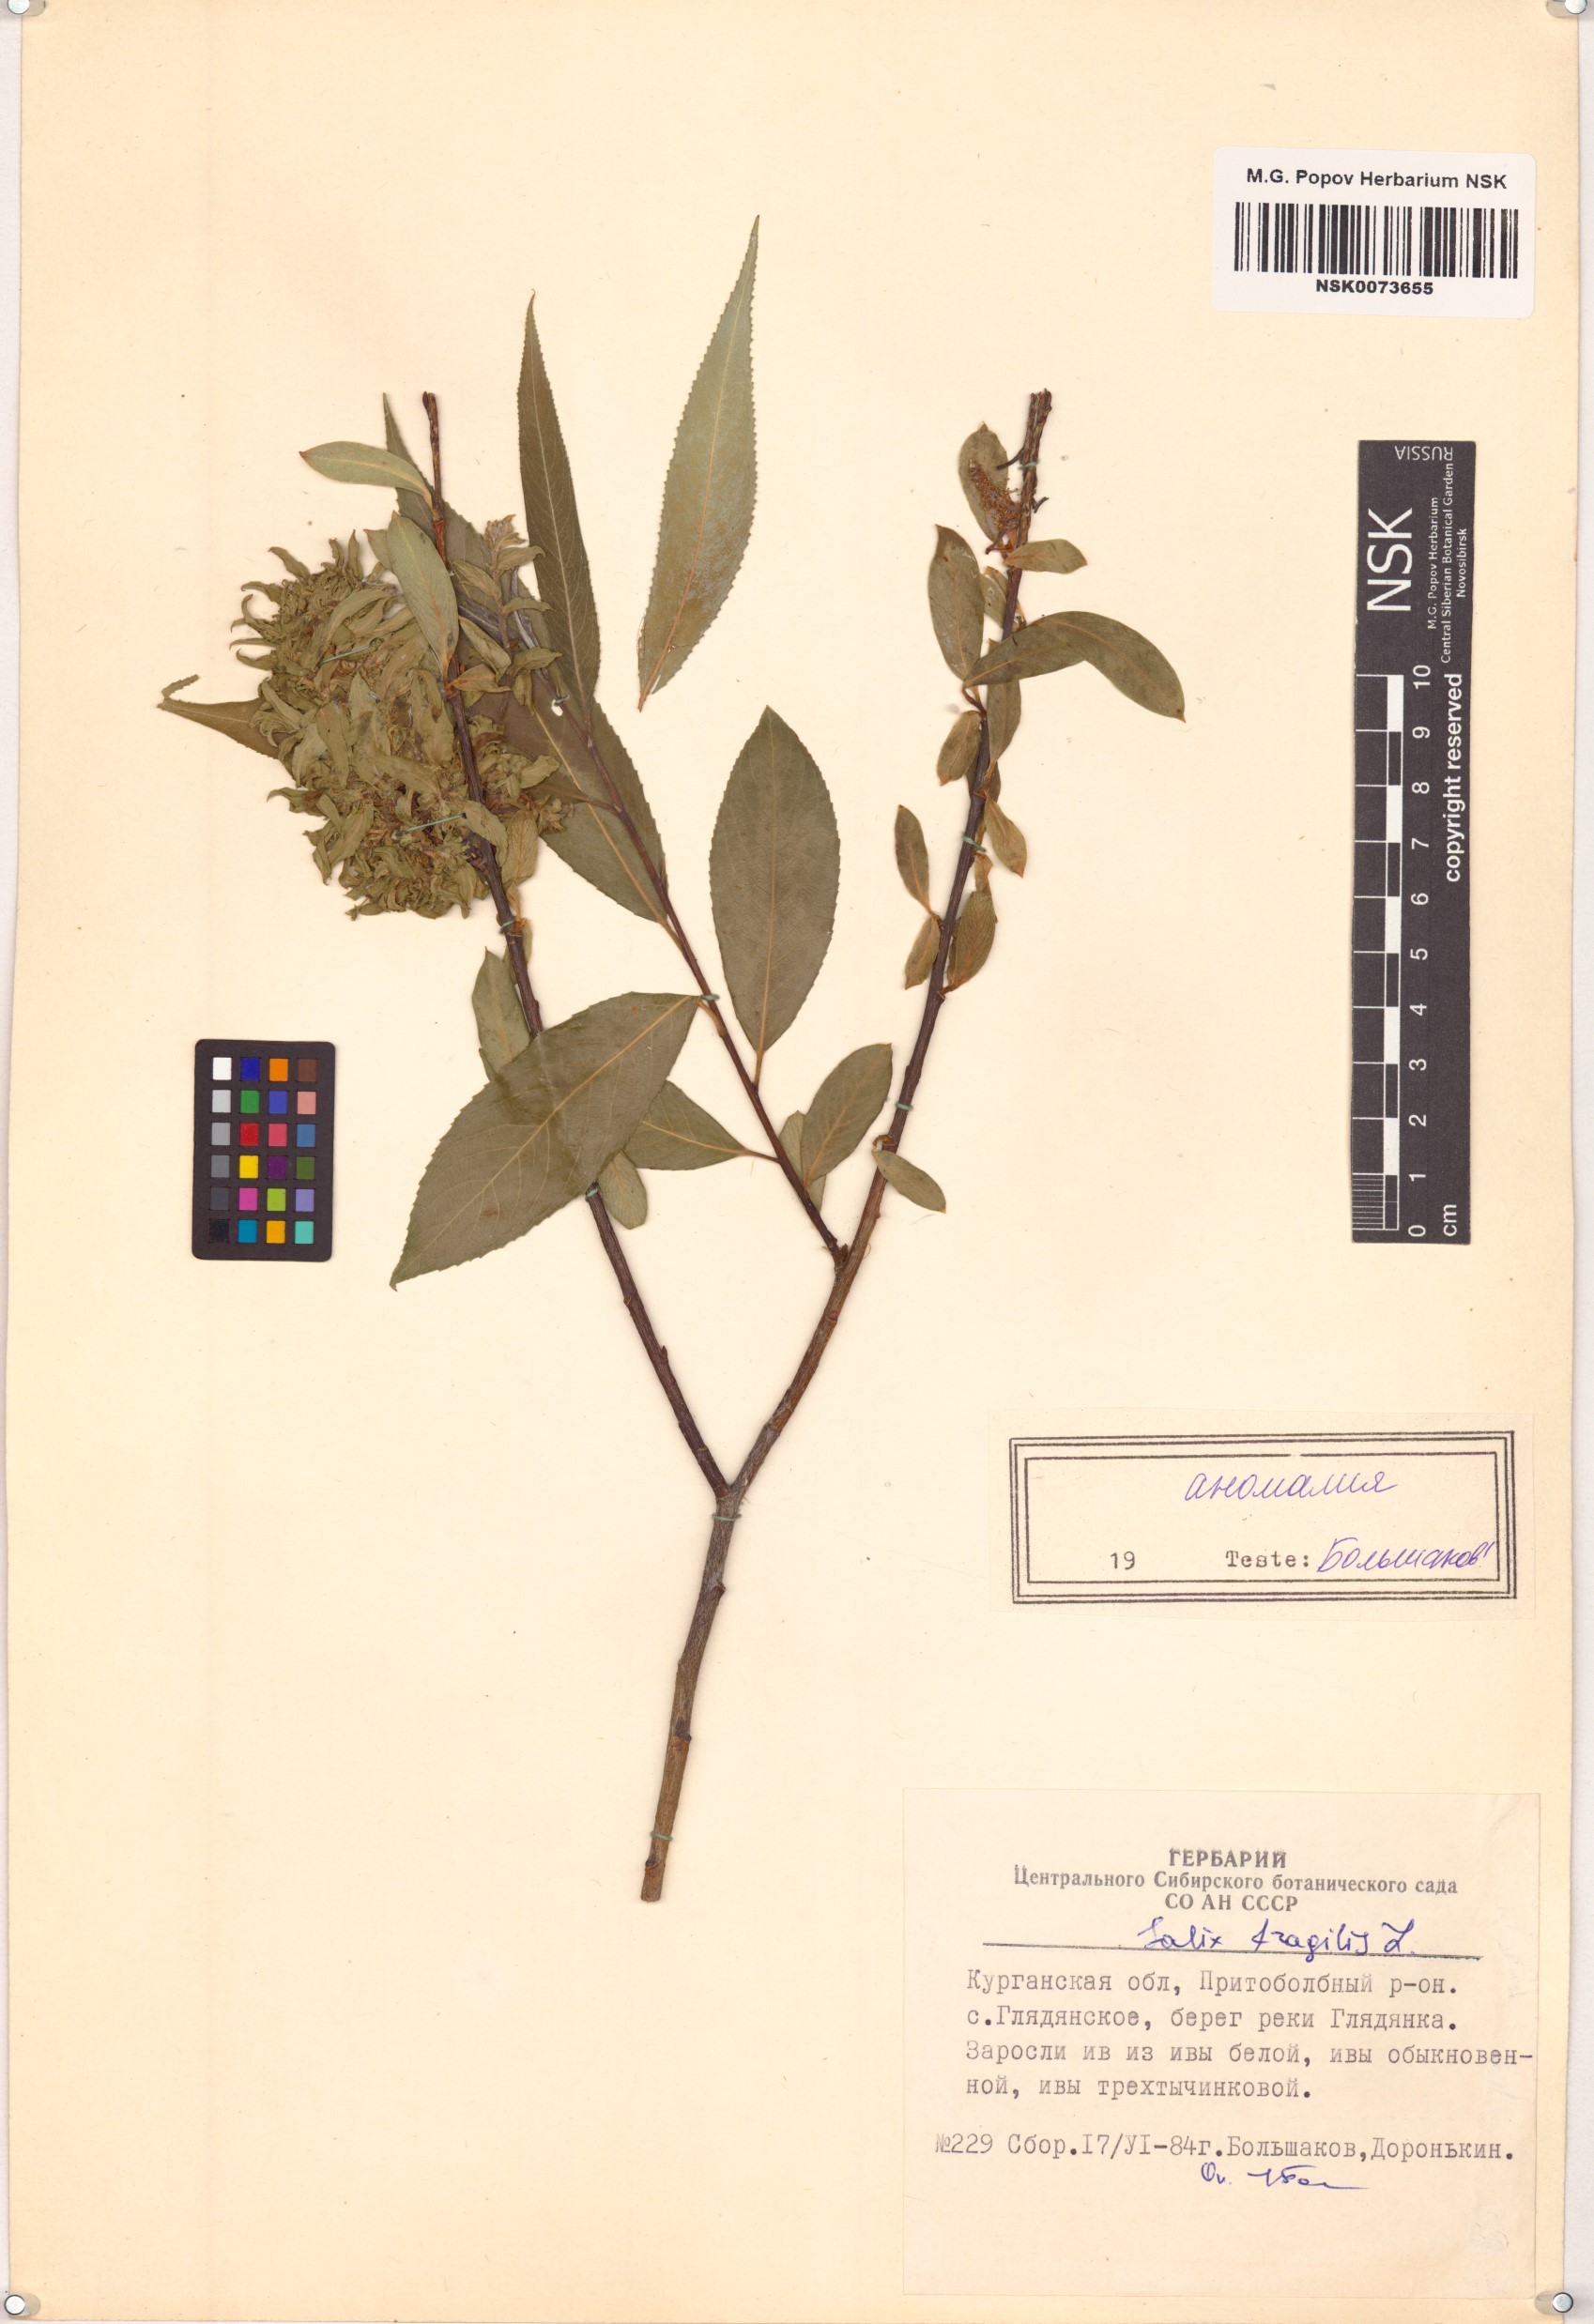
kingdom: Plantae
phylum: Tracheophyta
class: Magnoliopsida
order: Malpighiales
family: Salicaceae
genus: Salix
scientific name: Salix fragilis
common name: Crack willow
